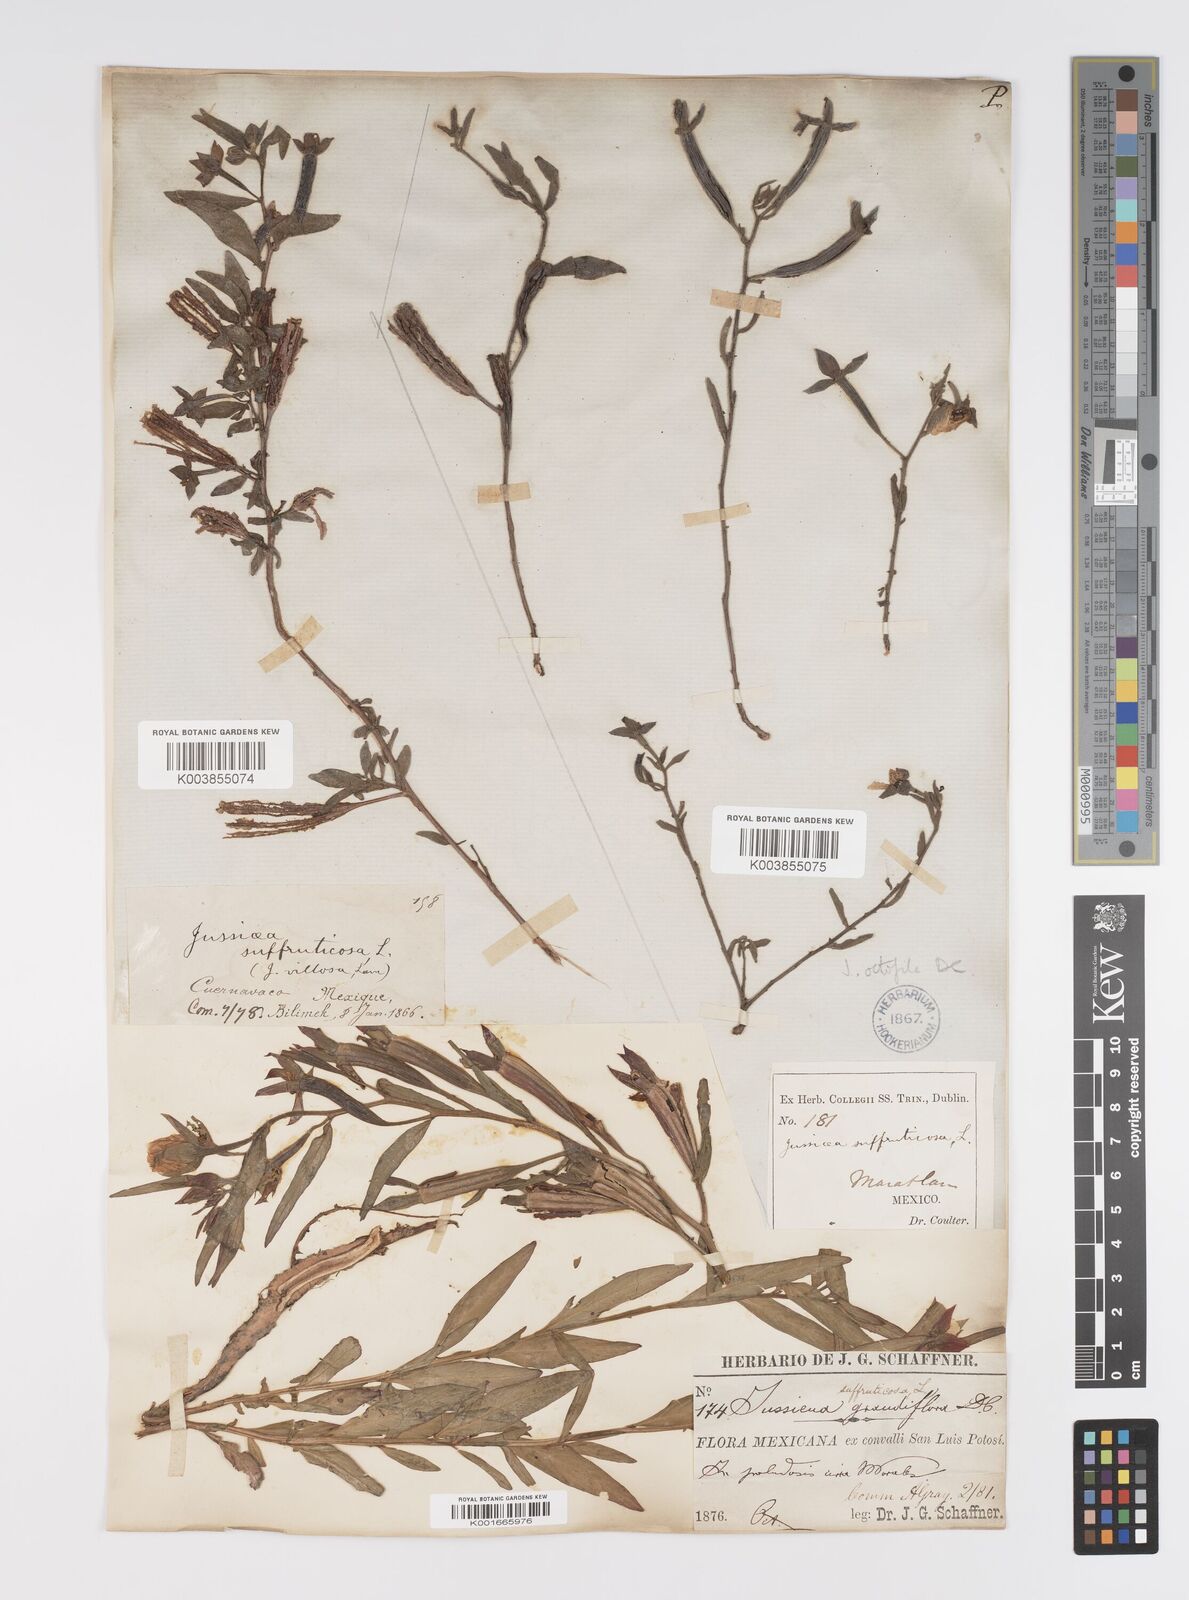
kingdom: Plantae
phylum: Tracheophyta
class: Magnoliopsida
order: Myrtales
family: Onagraceae
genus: Ludwigia
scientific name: Ludwigia octovalvis
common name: Water-primrose
